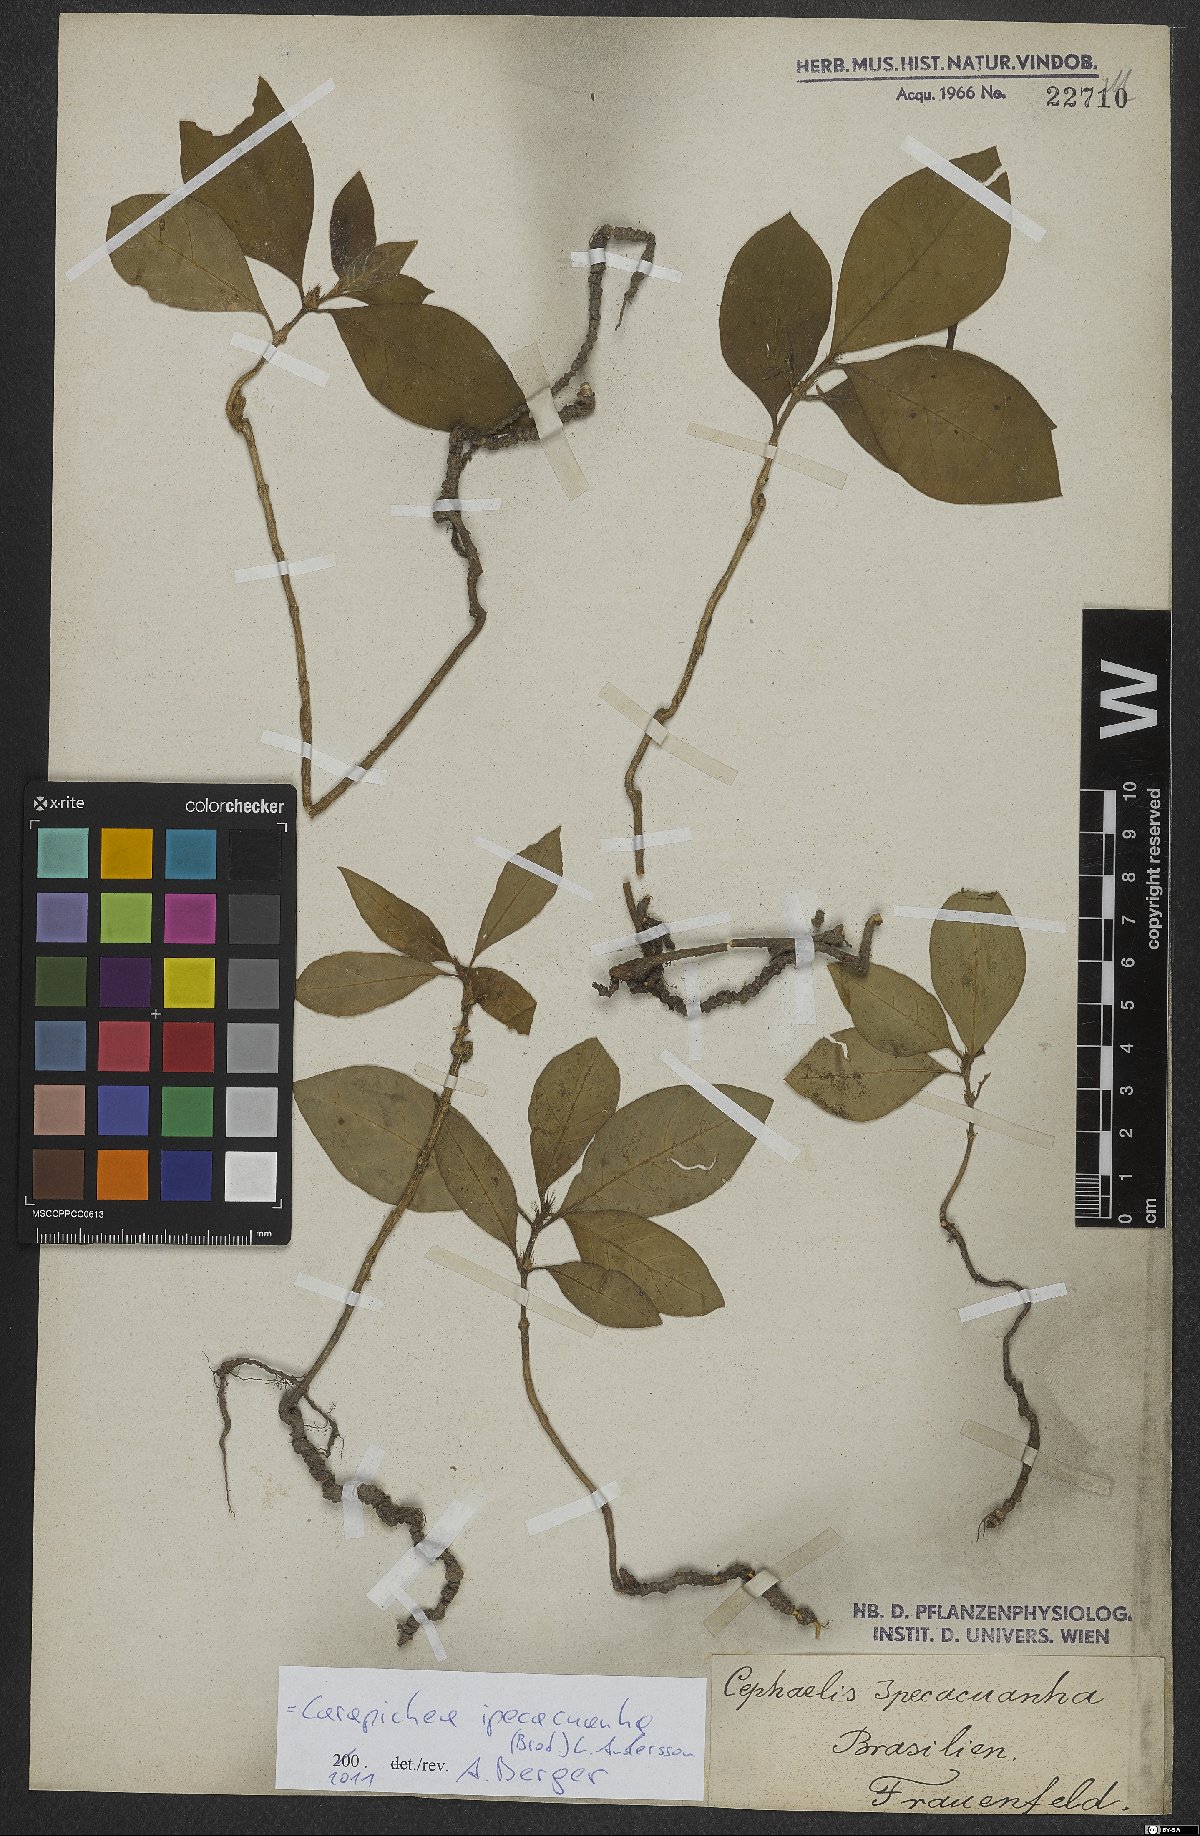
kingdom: Plantae
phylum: Tracheophyta
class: Magnoliopsida
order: Gentianales
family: Rubiaceae
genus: Carapichea
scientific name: Carapichea ipecacuanha
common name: Ipecac
